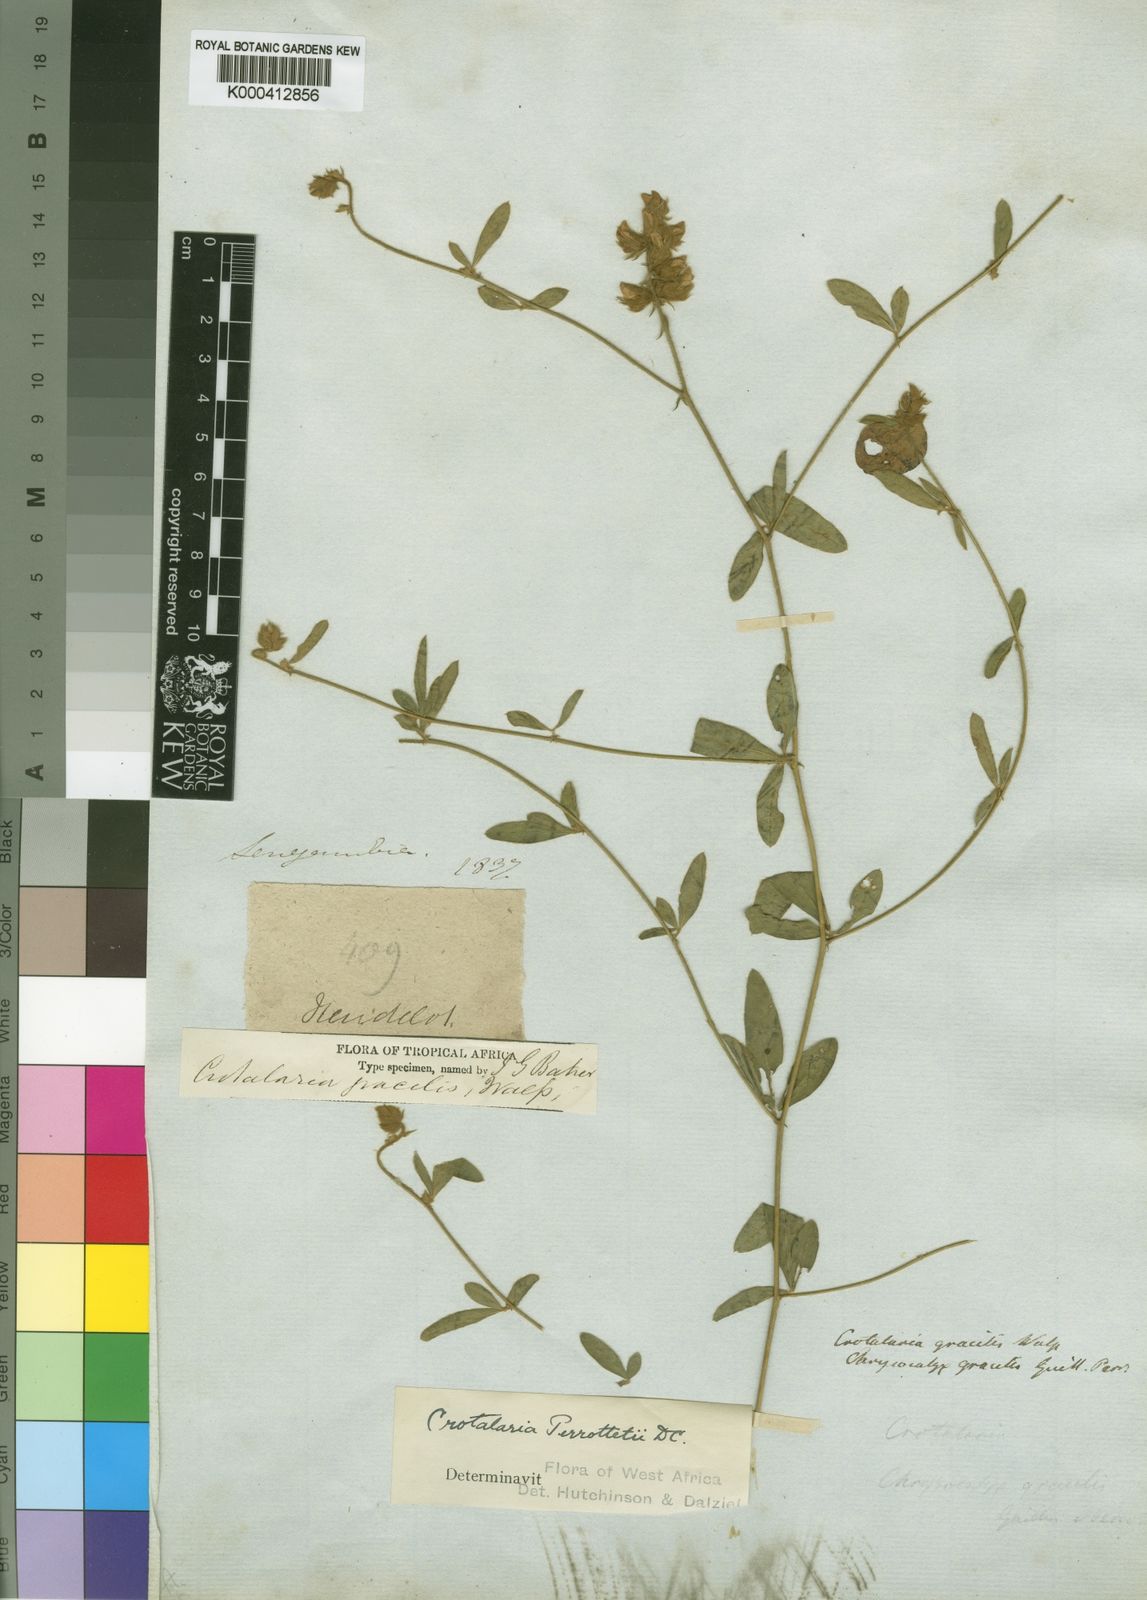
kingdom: Plantae
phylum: Tracheophyta
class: Magnoliopsida
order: Fabales
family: Fabaceae
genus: Crotalaria
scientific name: Crotalaria perrottetii
